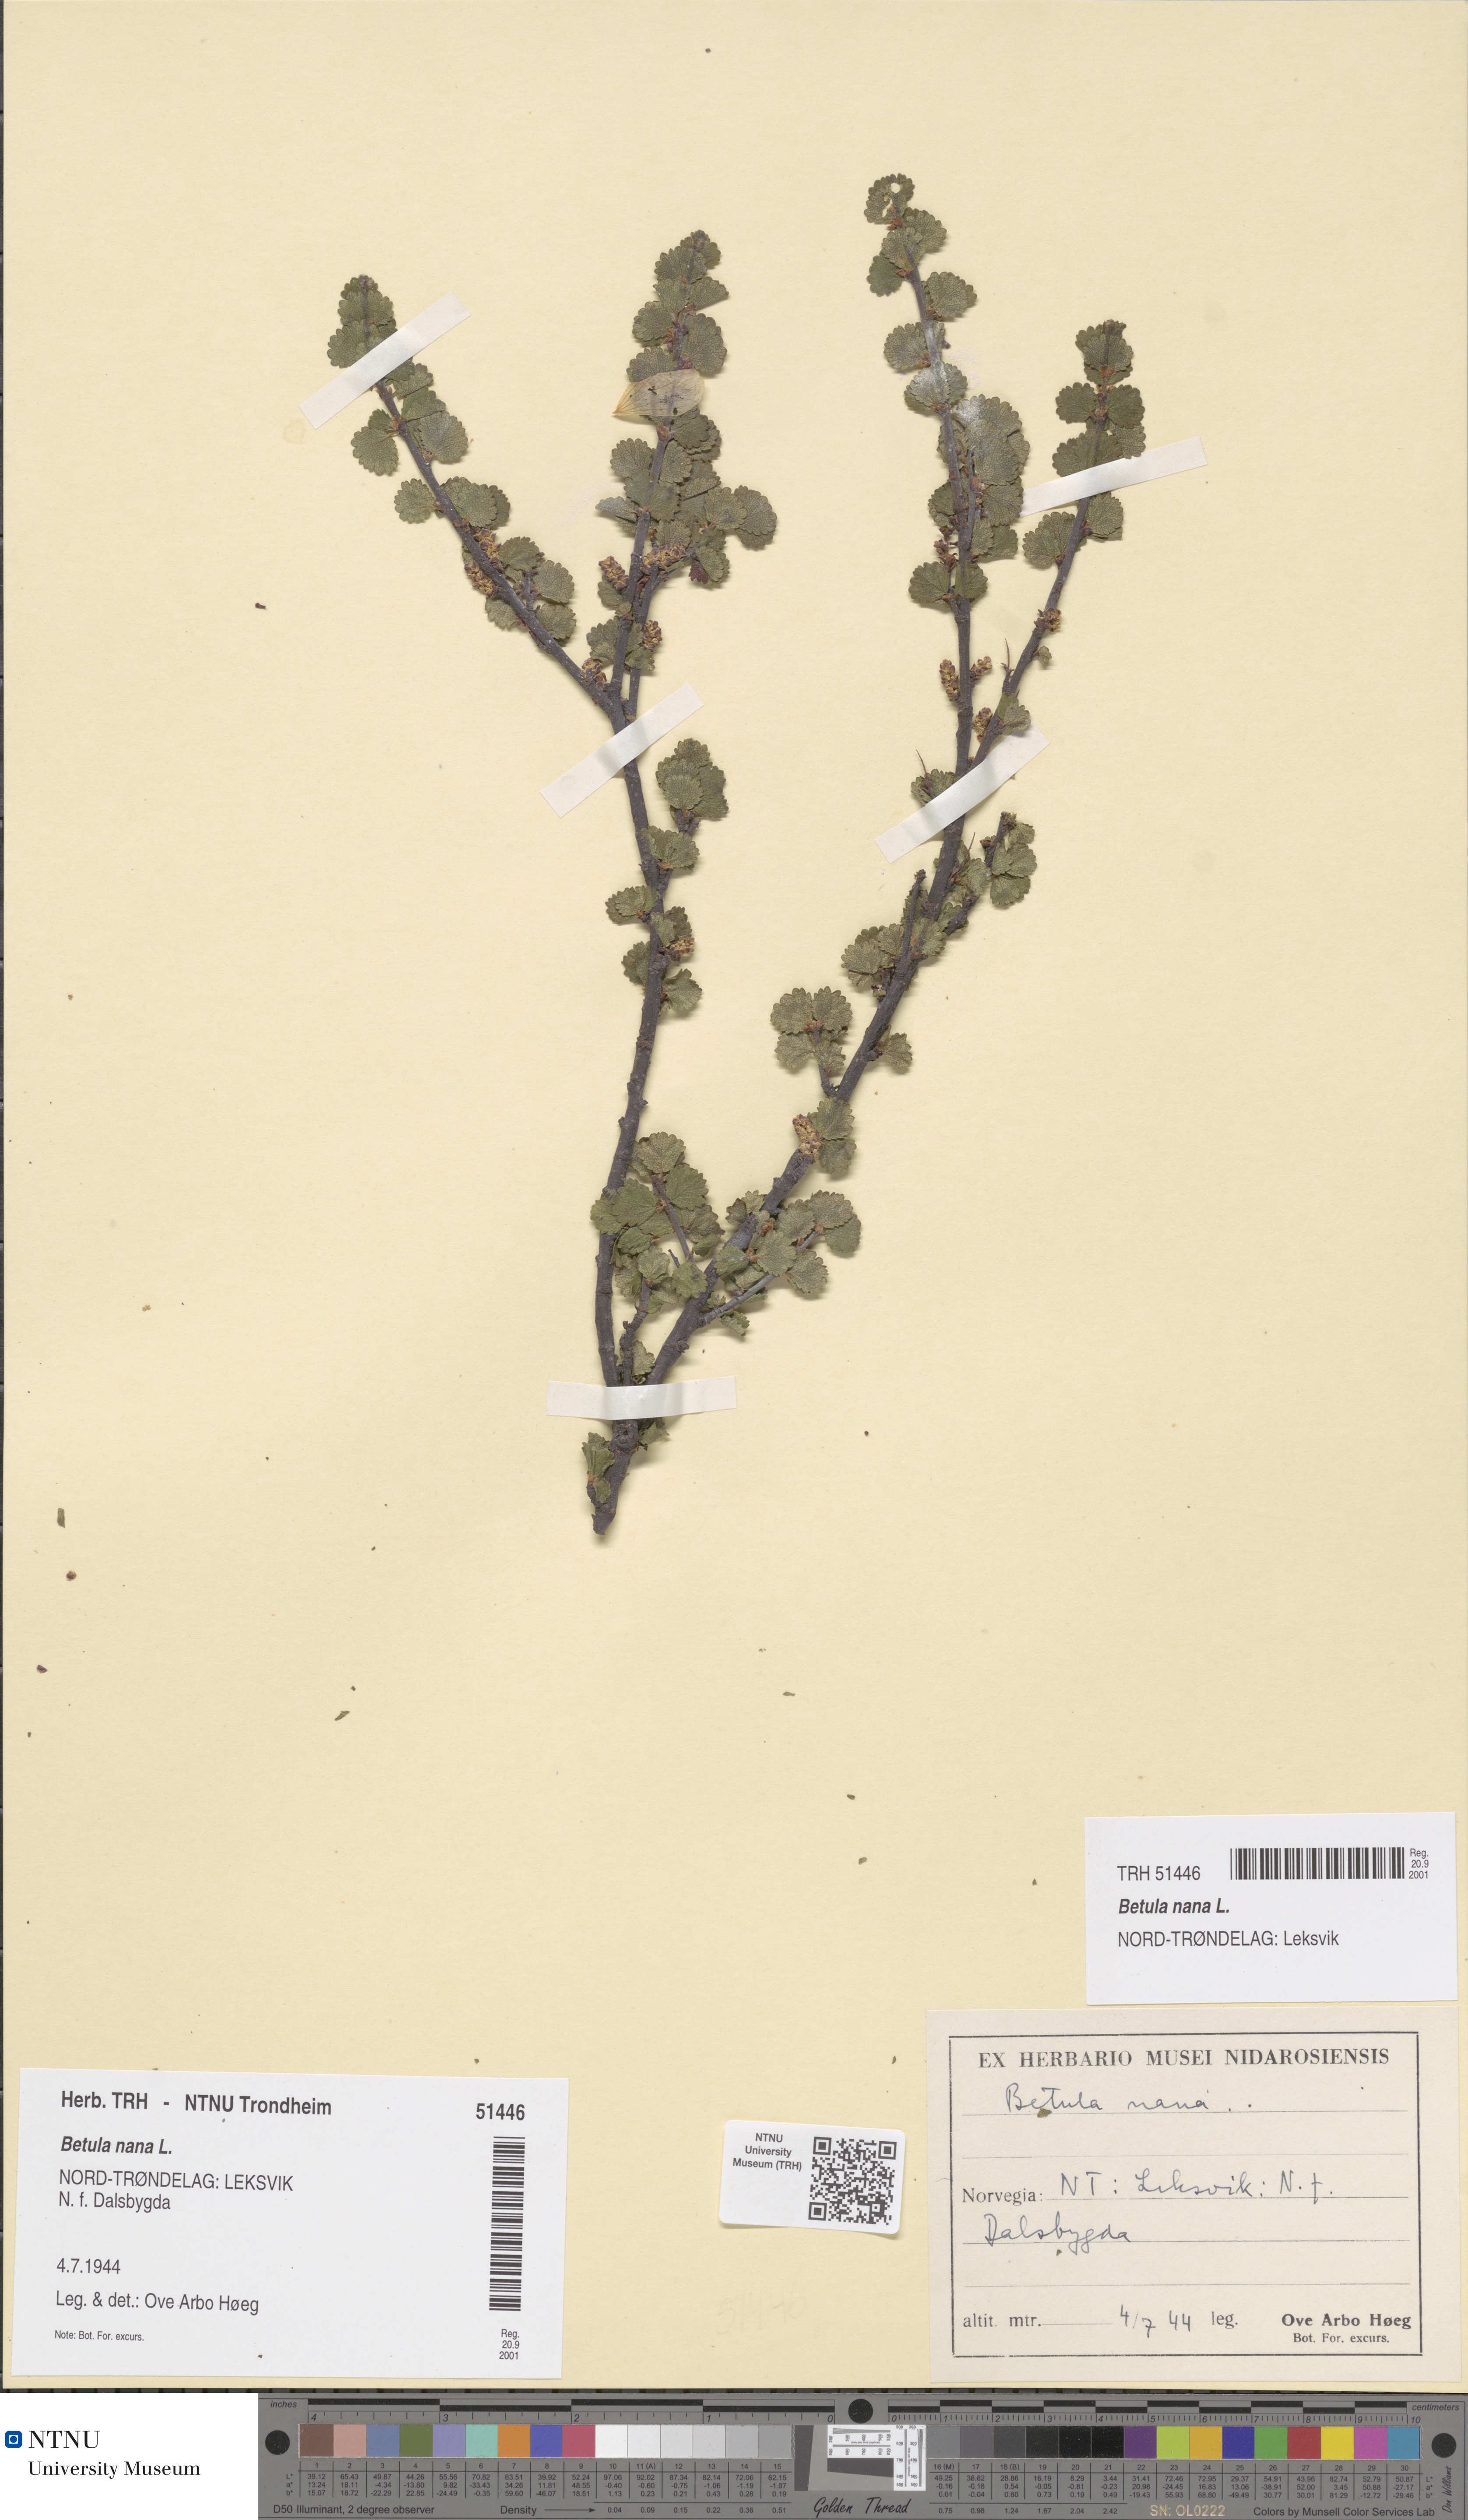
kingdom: Plantae
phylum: Tracheophyta
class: Magnoliopsida
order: Fagales
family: Betulaceae
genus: Betula
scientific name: Betula nana
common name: Arctic dwarf birch
